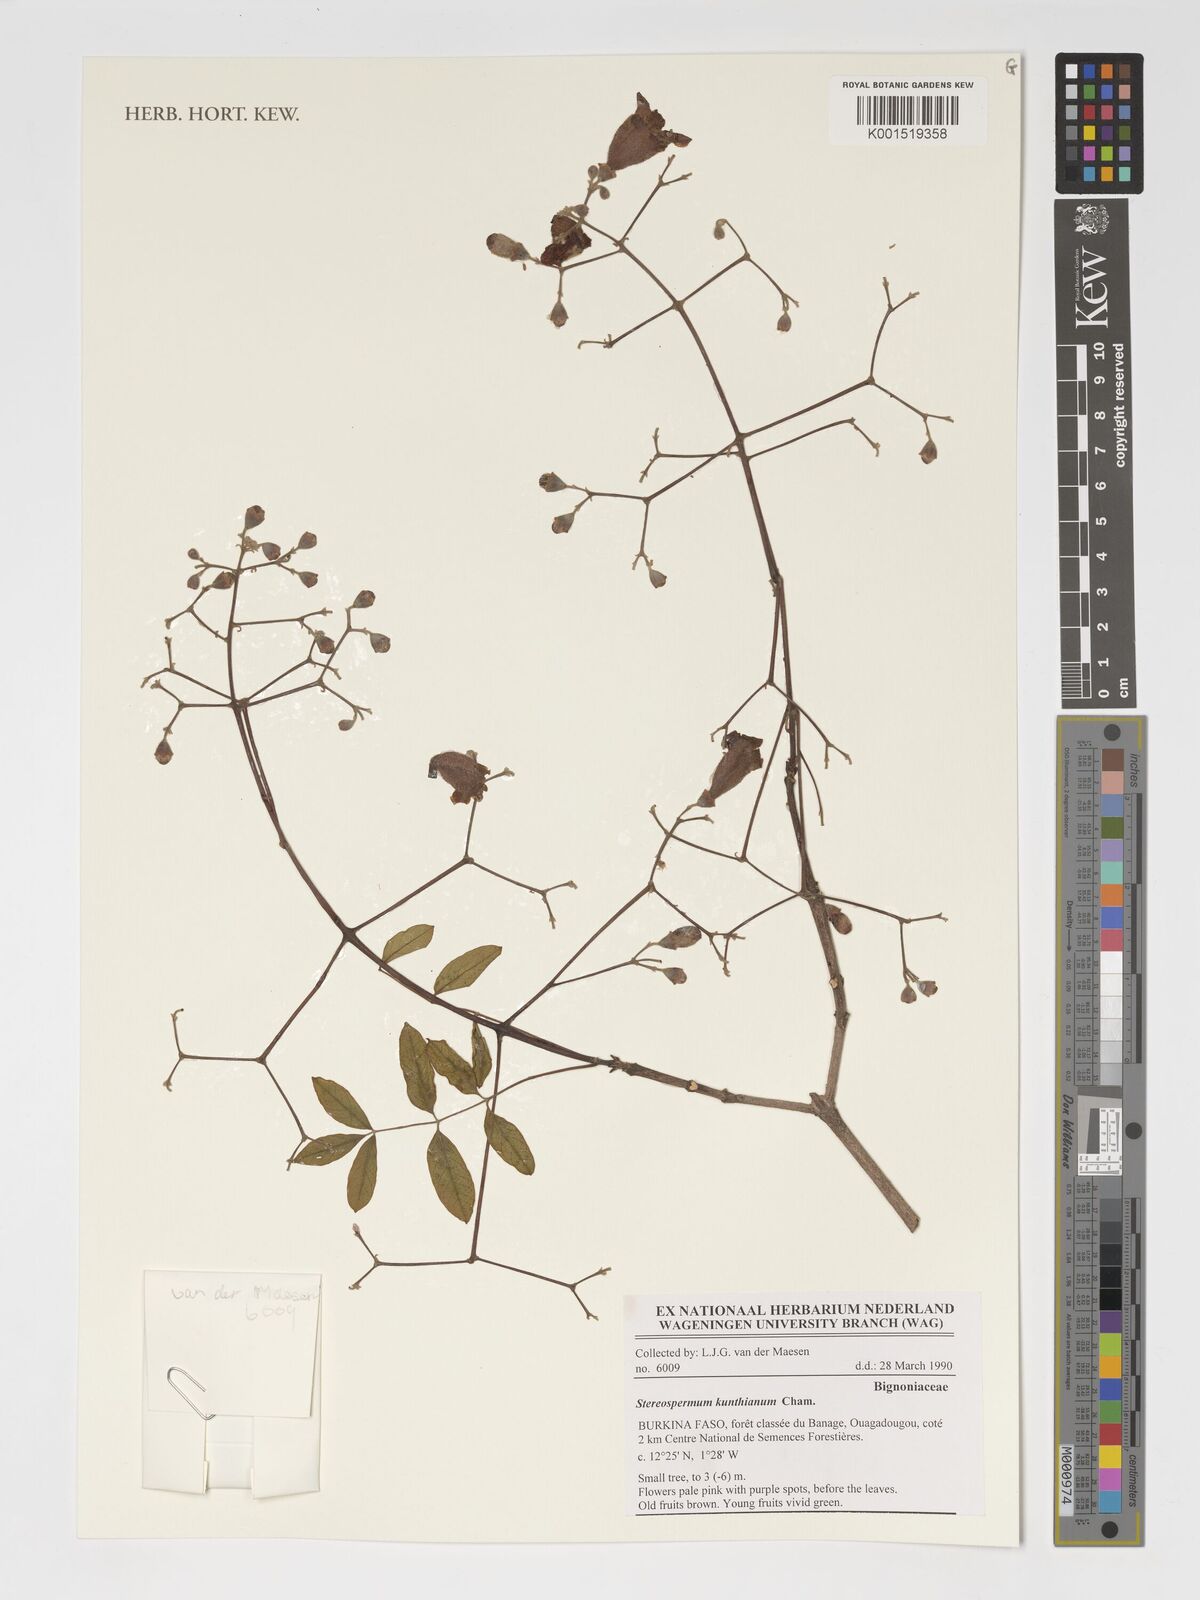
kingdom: Plantae
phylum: Tracheophyta
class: Magnoliopsida
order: Lamiales
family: Bignoniaceae
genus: Stereospermum
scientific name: Stereospermum kunthianum
